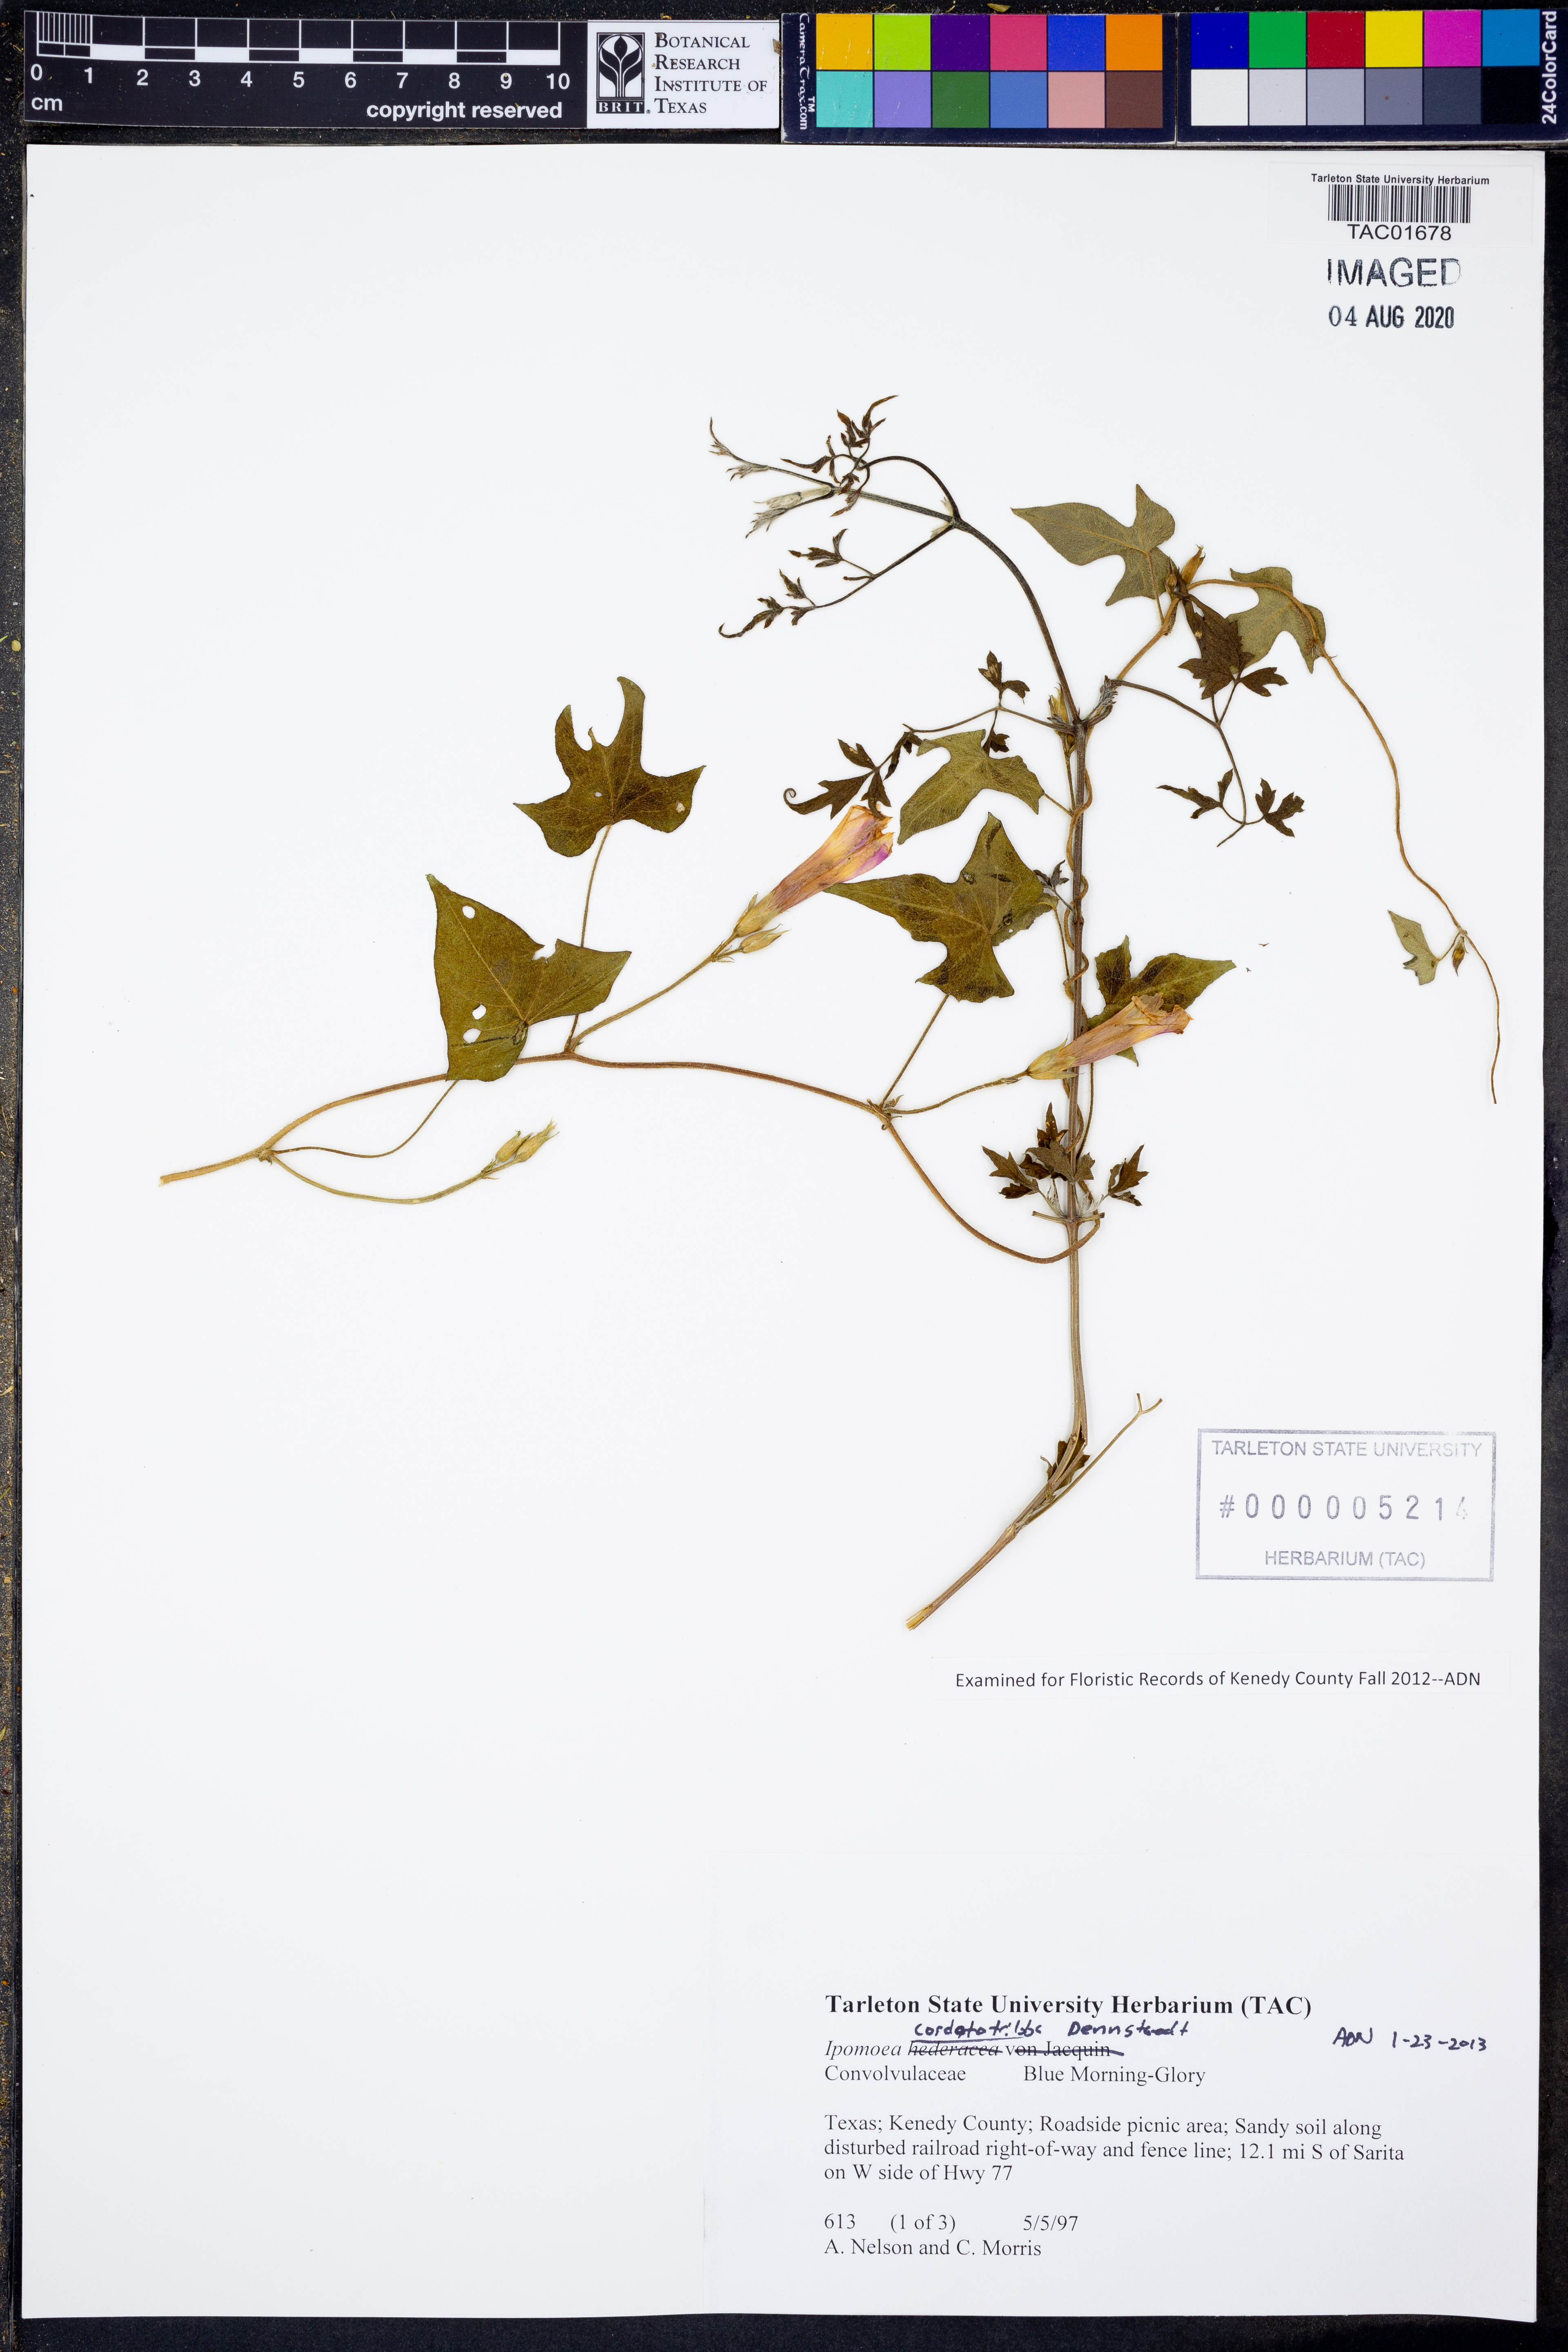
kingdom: Plantae
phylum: Tracheophyta
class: Magnoliopsida
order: Solanales
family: Convolvulaceae
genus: Ipomoea
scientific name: Ipomoea cordatotriloba
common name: Cotton morning glory
